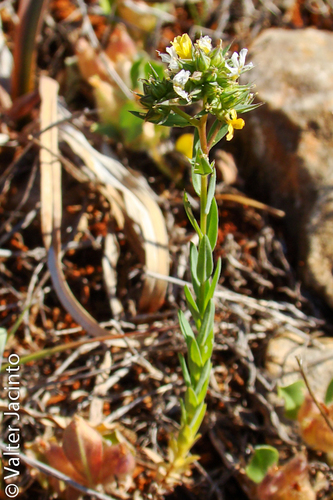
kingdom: Plantae
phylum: Tracheophyta
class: Magnoliopsida
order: Malpighiales
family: Linaceae
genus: Linum
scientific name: Linum strictum
